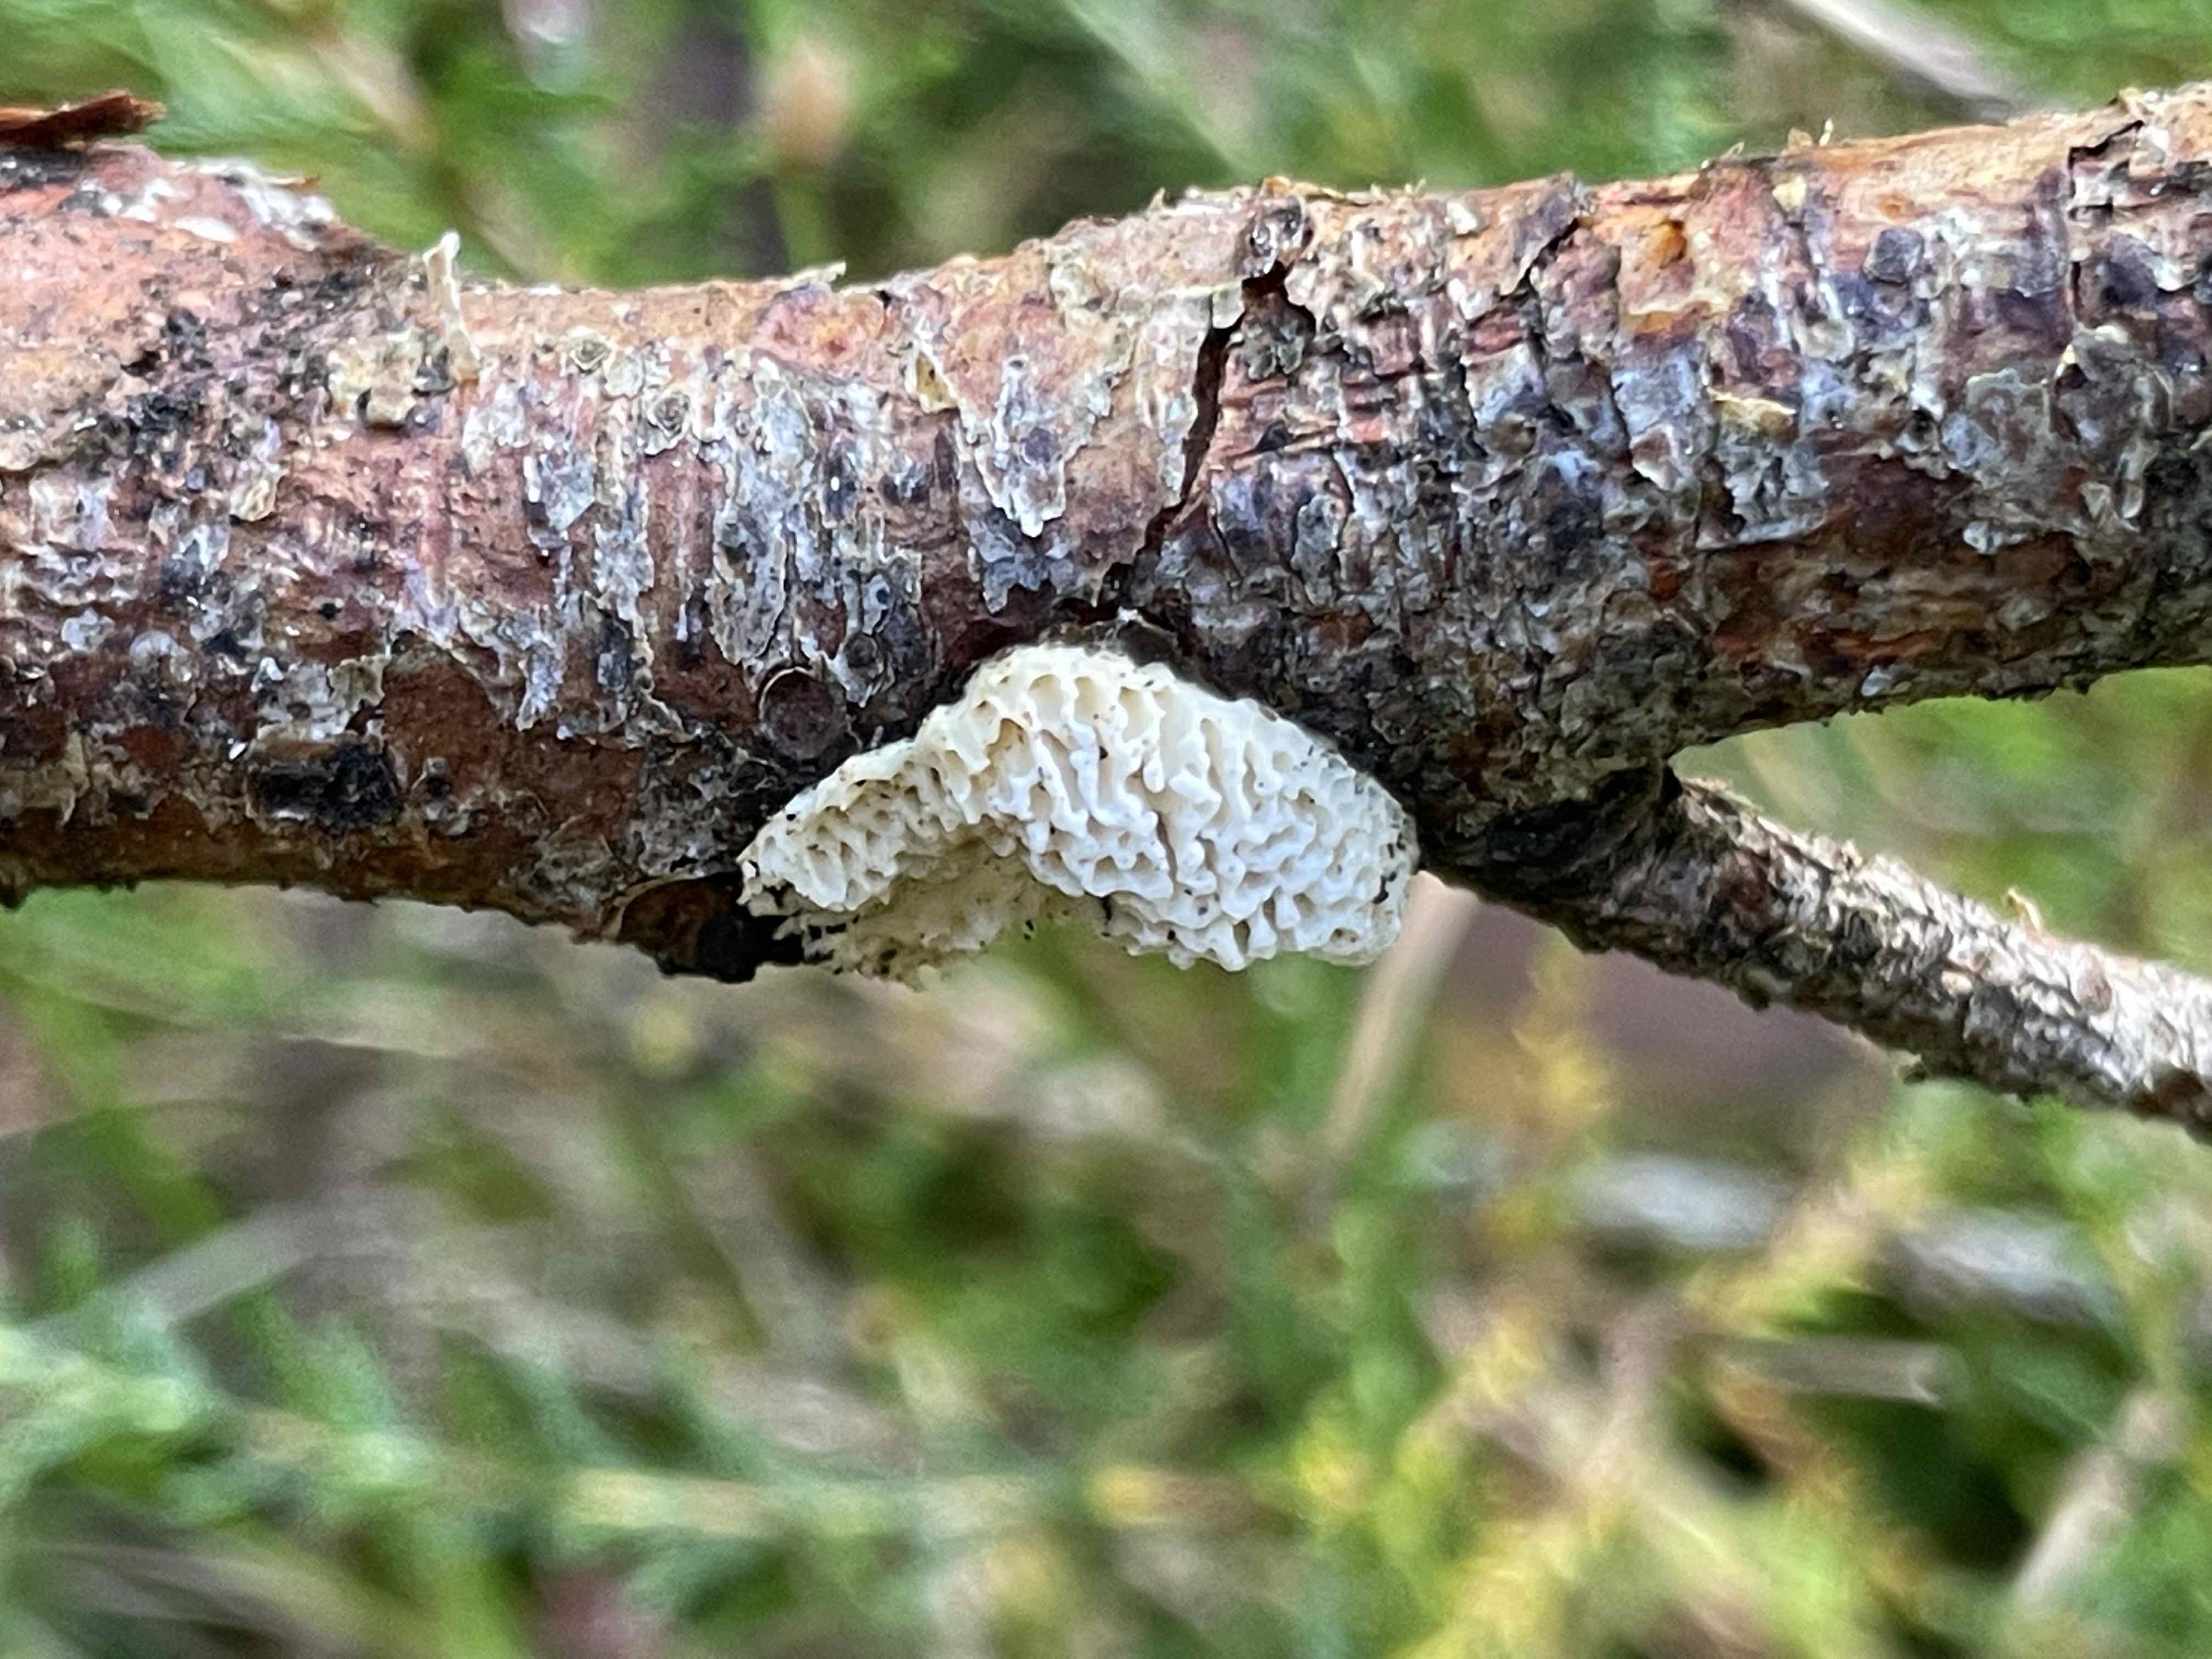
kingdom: Fungi
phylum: Basidiomycota
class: Agaricomycetes
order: Polyporales
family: Fomitopsidaceae
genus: Fomitopsis
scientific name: Fomitopsis
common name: fyrre-skiveporesvamp
